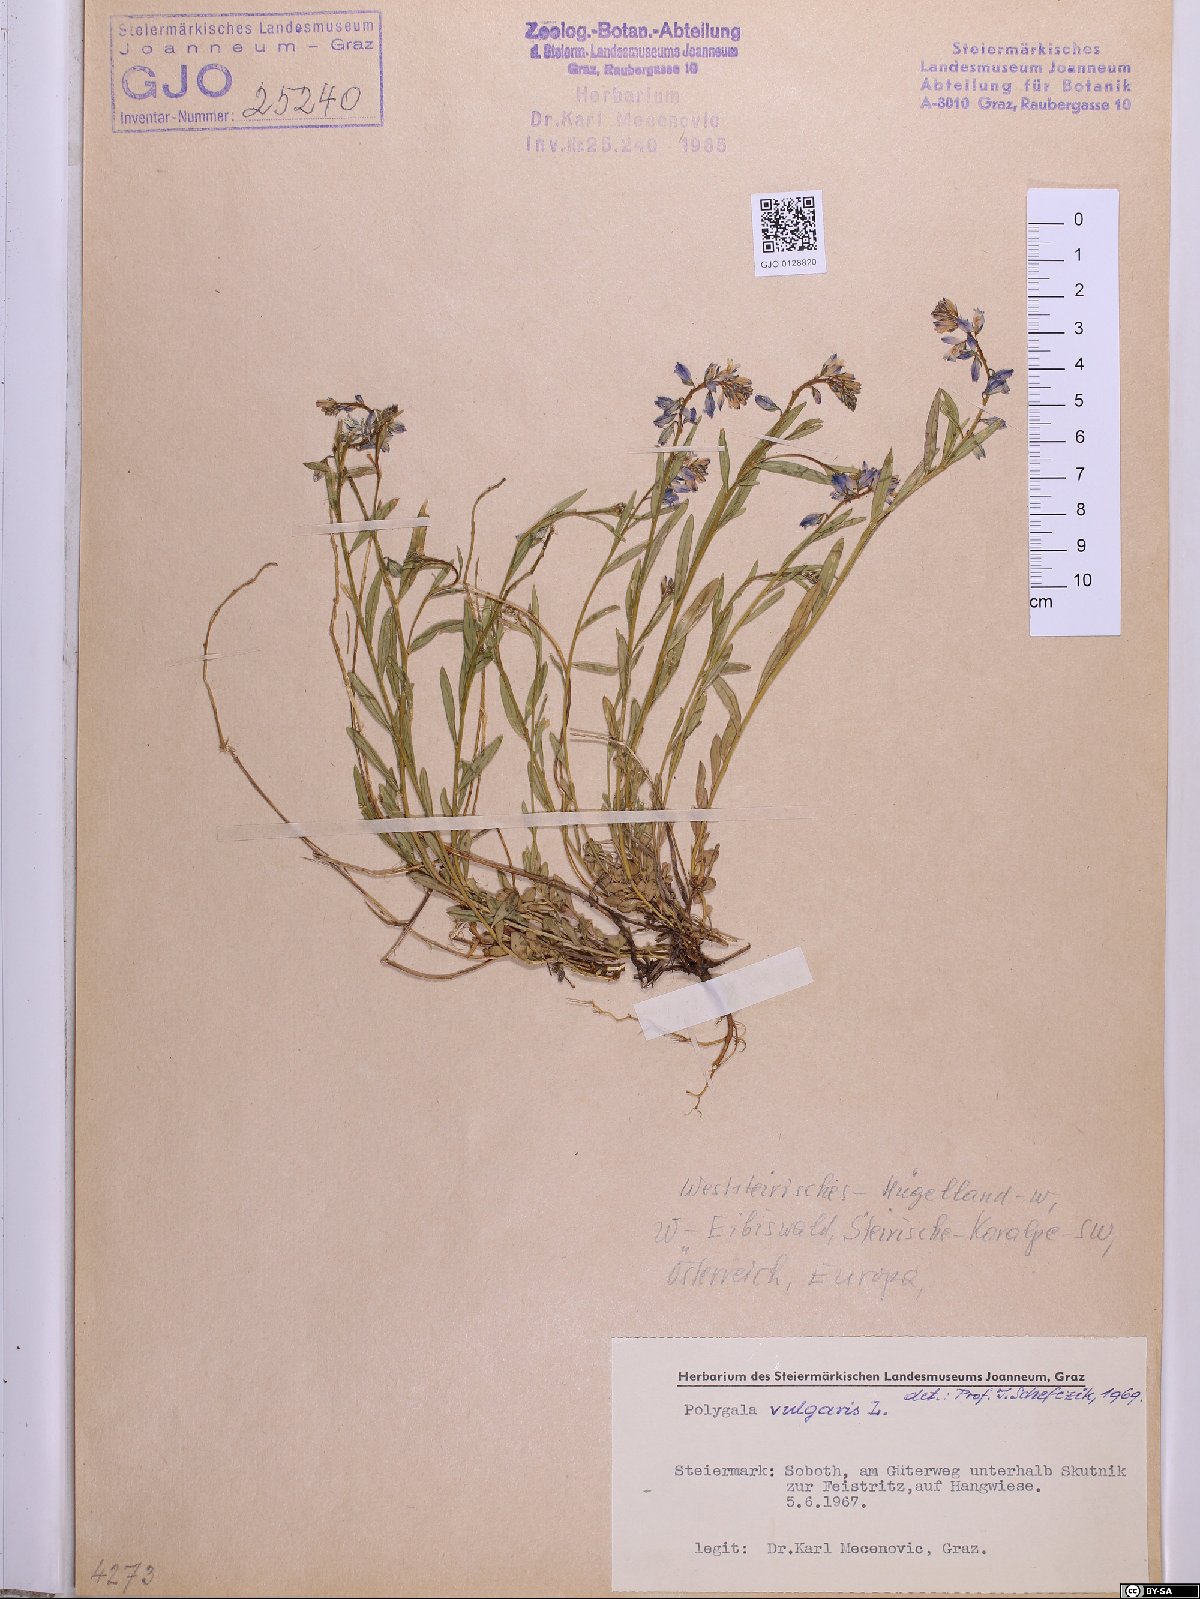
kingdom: Plantae
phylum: Tracheophyta
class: Magnoliopsida
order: Fabales
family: Polygalaceae
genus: Polygala
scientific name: Polygala vulgaris
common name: Common milkwort
